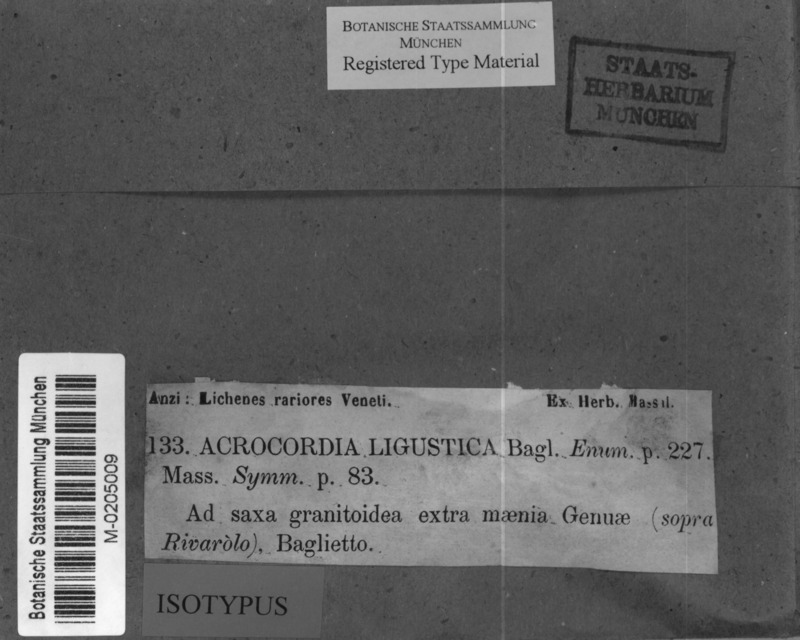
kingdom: Fungi
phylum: Ascomycota
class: Dothideomycetes
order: Monoblastiales
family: Monoblastiaceae
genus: Acrocordia
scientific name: Acrocordia conoidea
